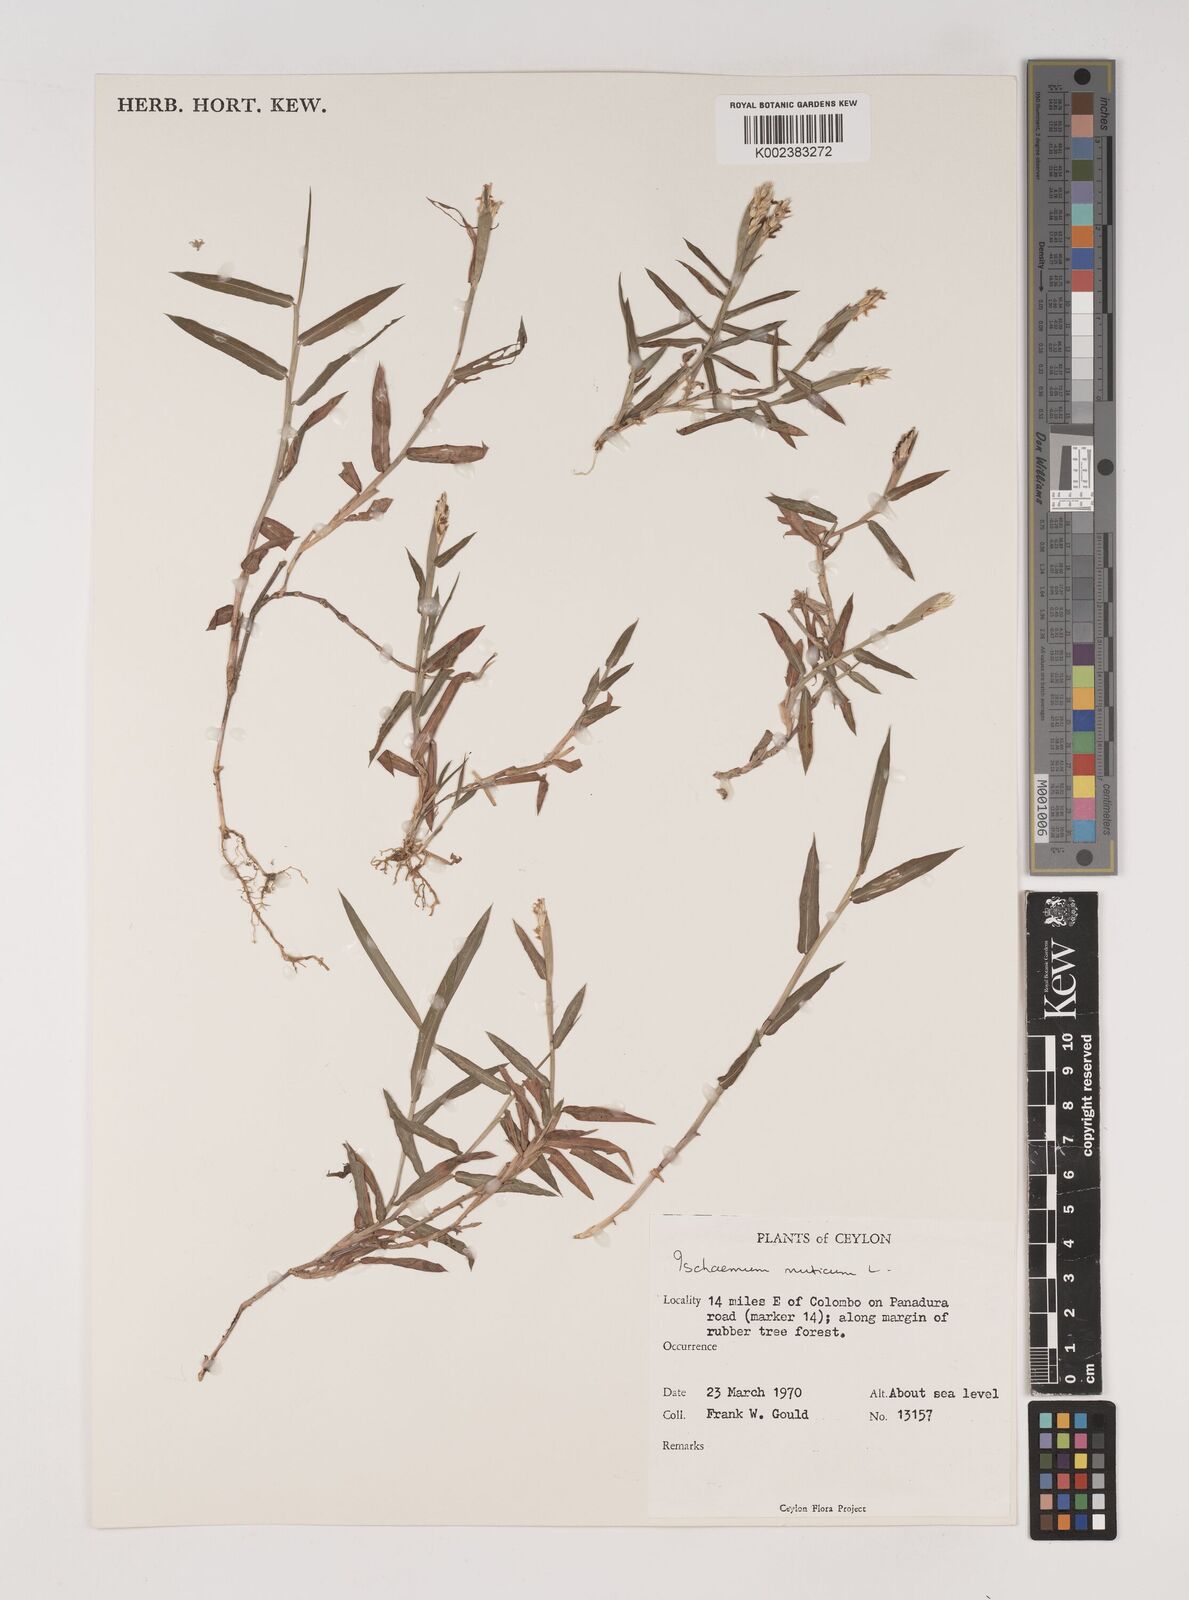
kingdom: Plantae
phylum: Tracheophyta
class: Liliopsida
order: Poales
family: Poaceae
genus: Ischaemum
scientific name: Ischaemum muticum
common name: Drought grass
